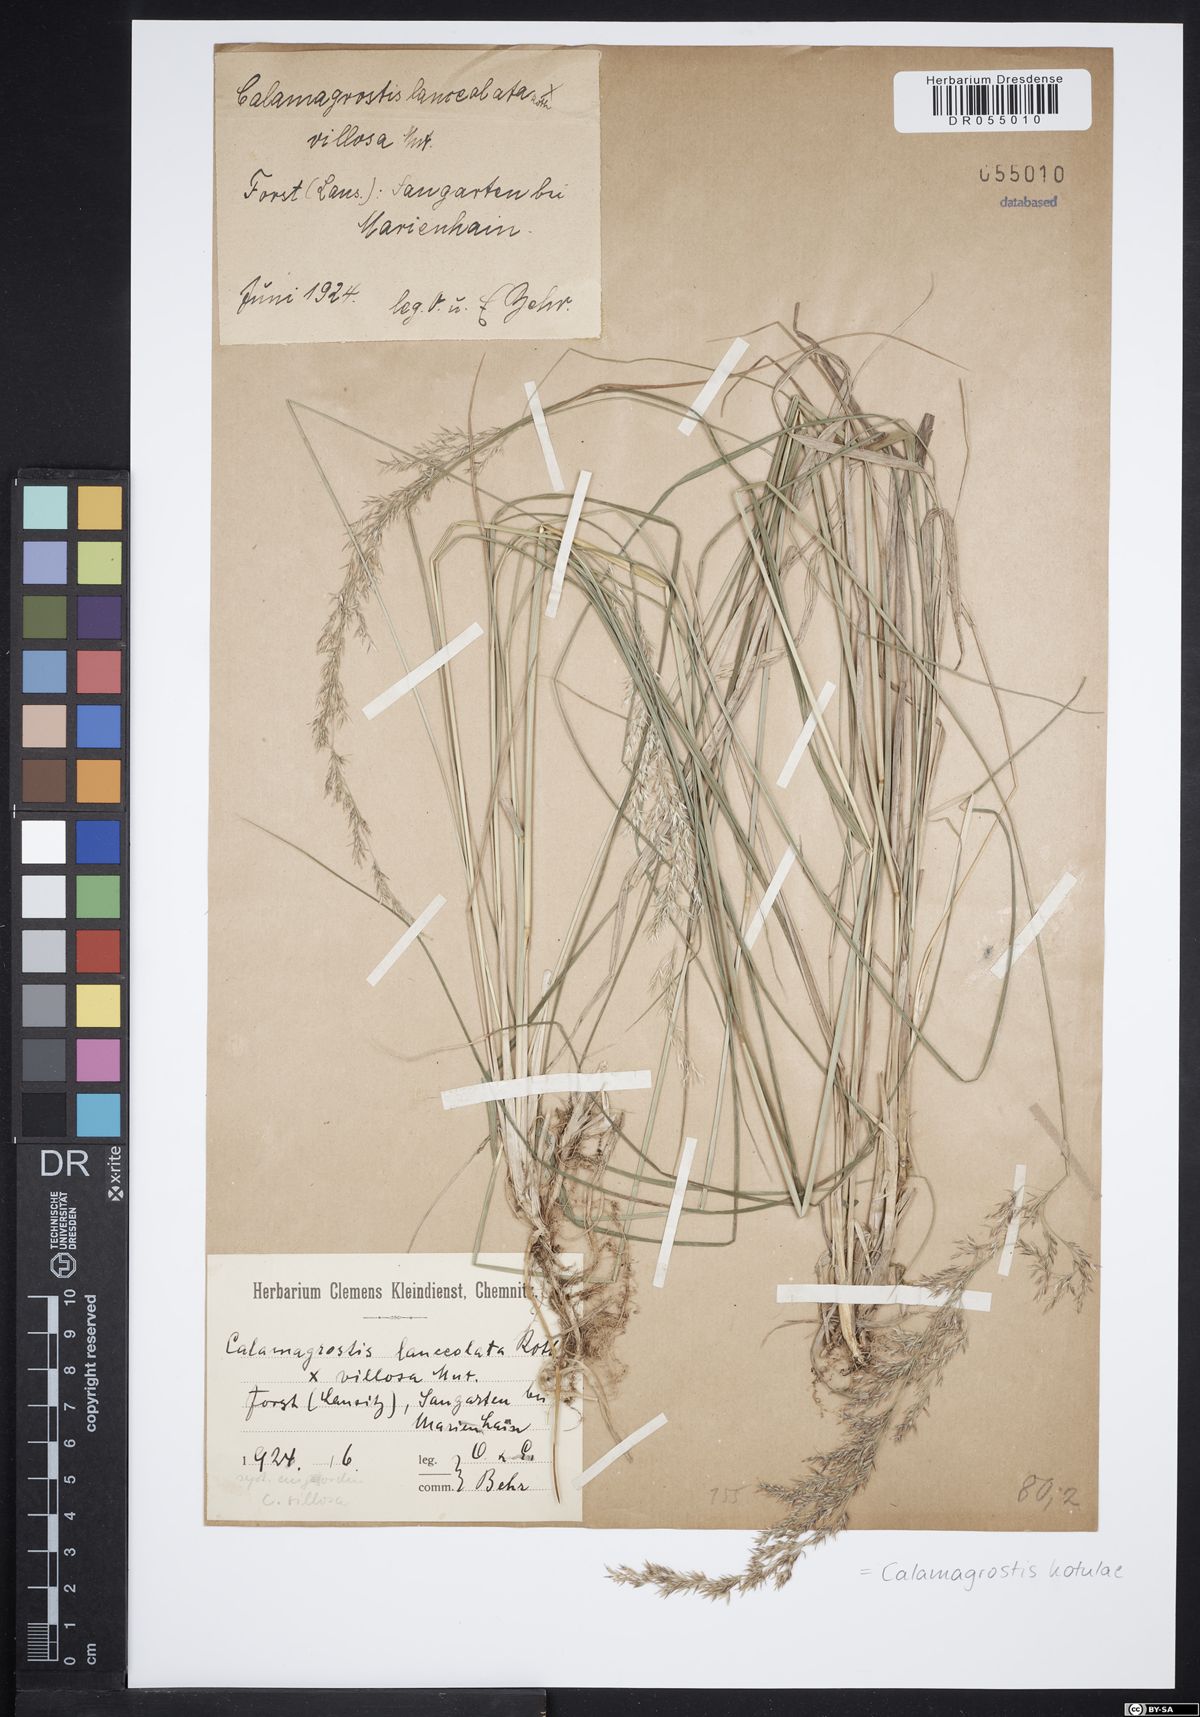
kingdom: Plantae
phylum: Tracheophyta
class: Liliopsida
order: Poales
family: Poaceae
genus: Calamagrostis
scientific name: Calamagrostis kotulae
